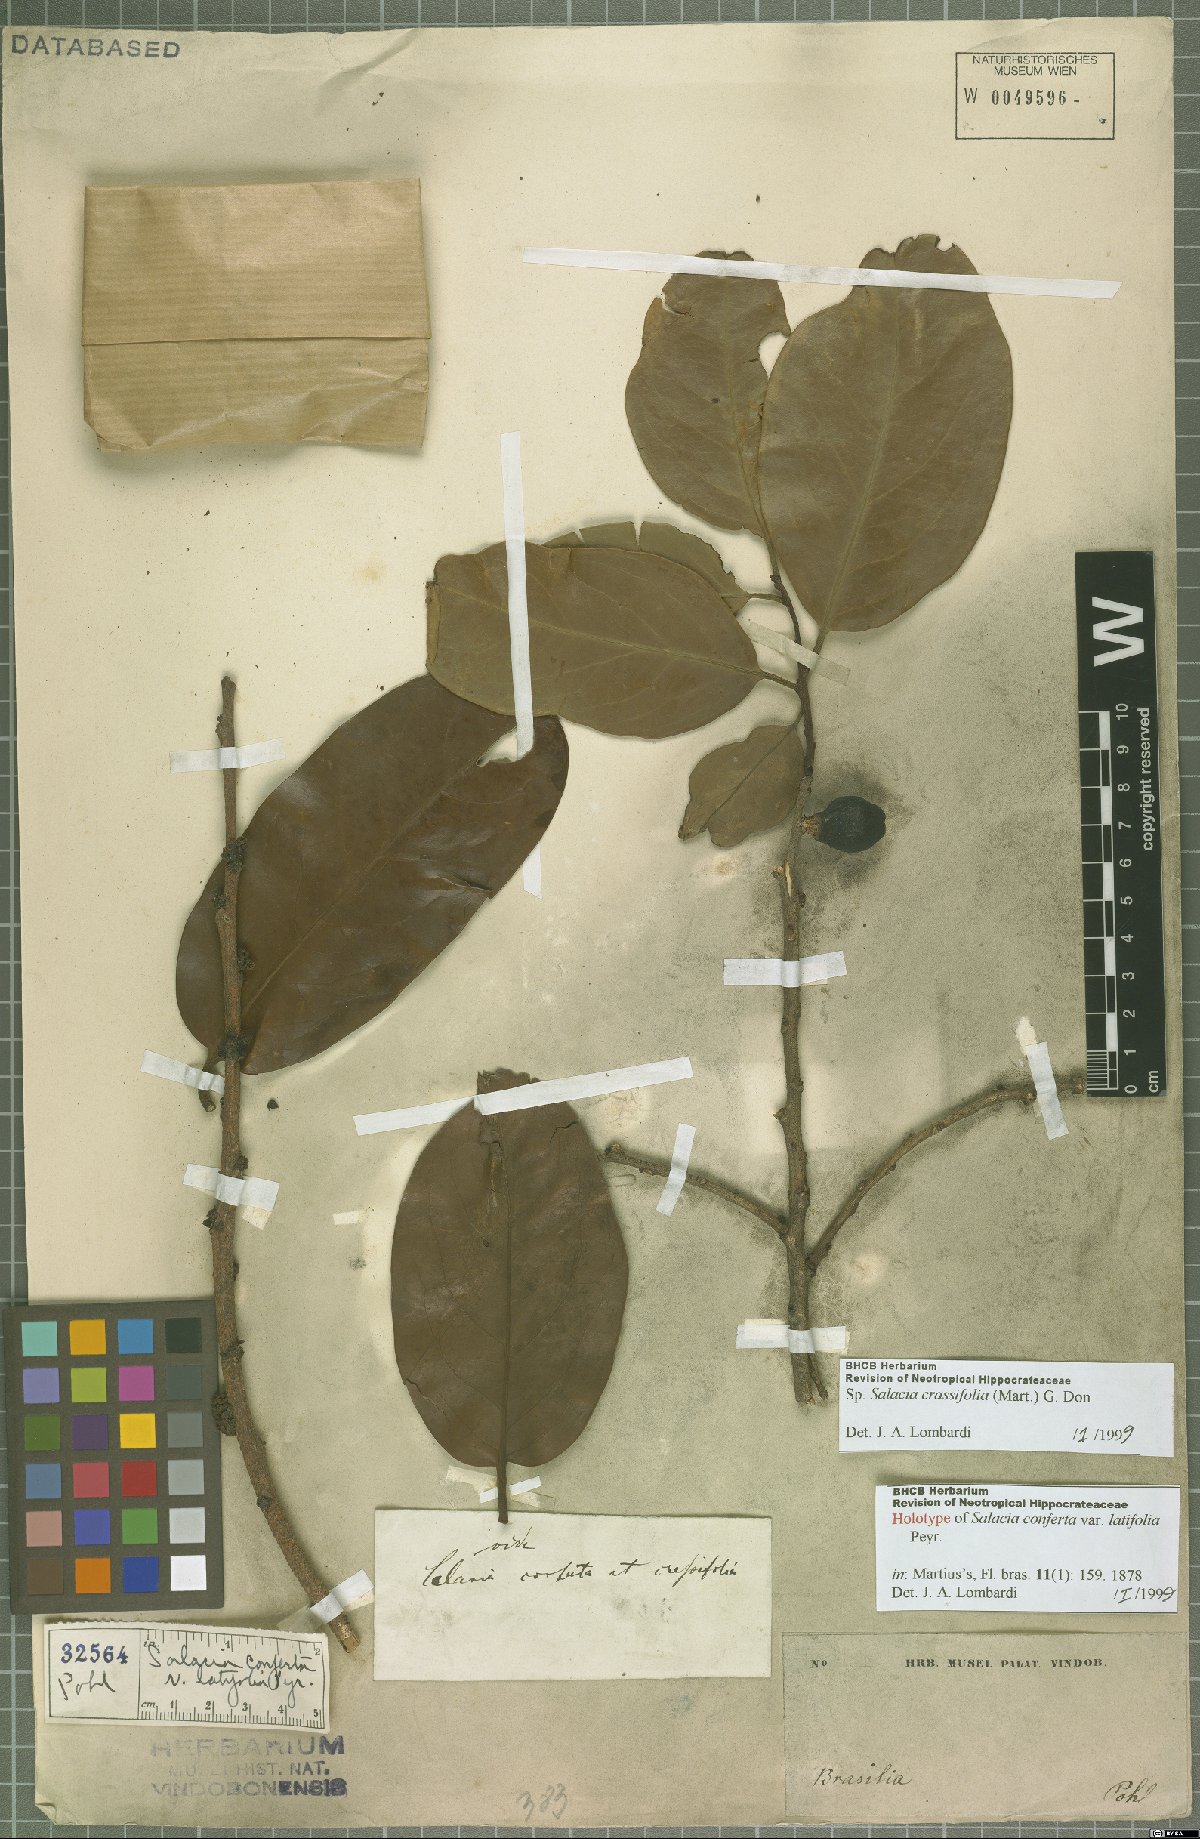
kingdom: Plantae
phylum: Tracheophyta
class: Magnoliopsida
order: Celastrales
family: Celastraceae
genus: Salacia
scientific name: Salacia crassifolia
